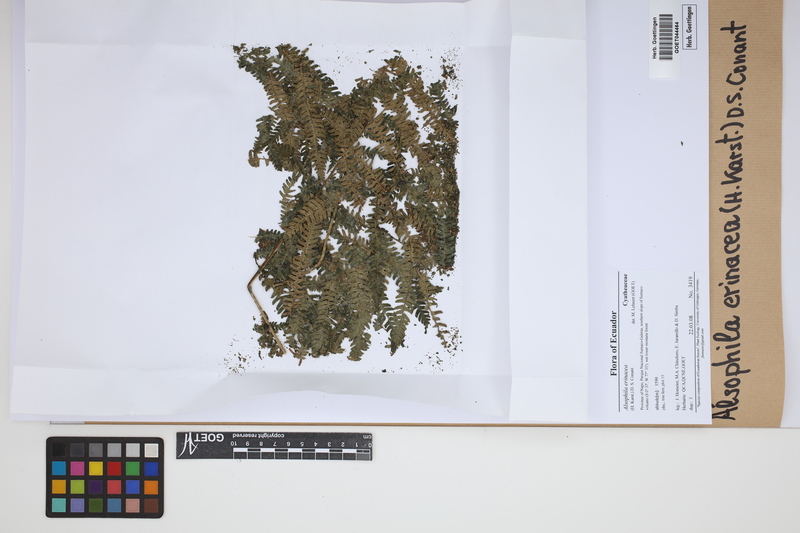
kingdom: Plantae
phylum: Tracheophyta
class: Polypodiopsida
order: Cyatheales
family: Cyatheaceae
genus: Alsophila
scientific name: Alsophila erinacea
